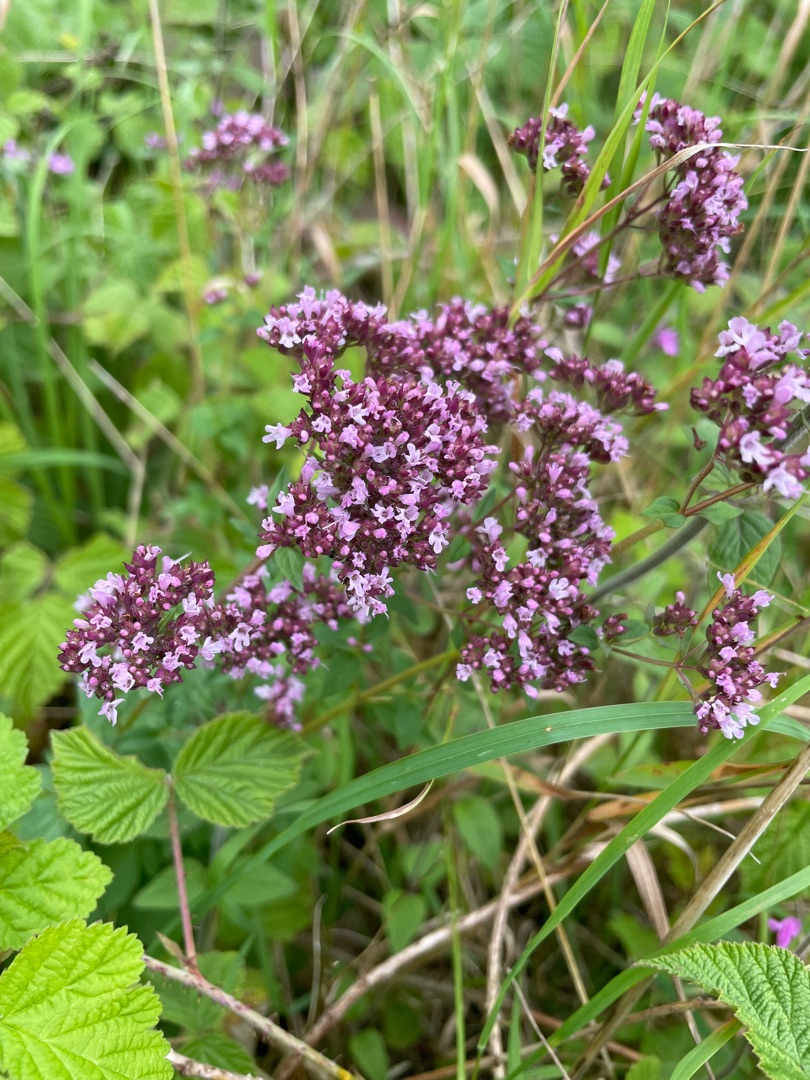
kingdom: Plantae
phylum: Tracheophyta
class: Magnoliopsida
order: Lamiales
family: Lamiaceae
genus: Origanum
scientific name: Origanum vulgare
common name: Merian
